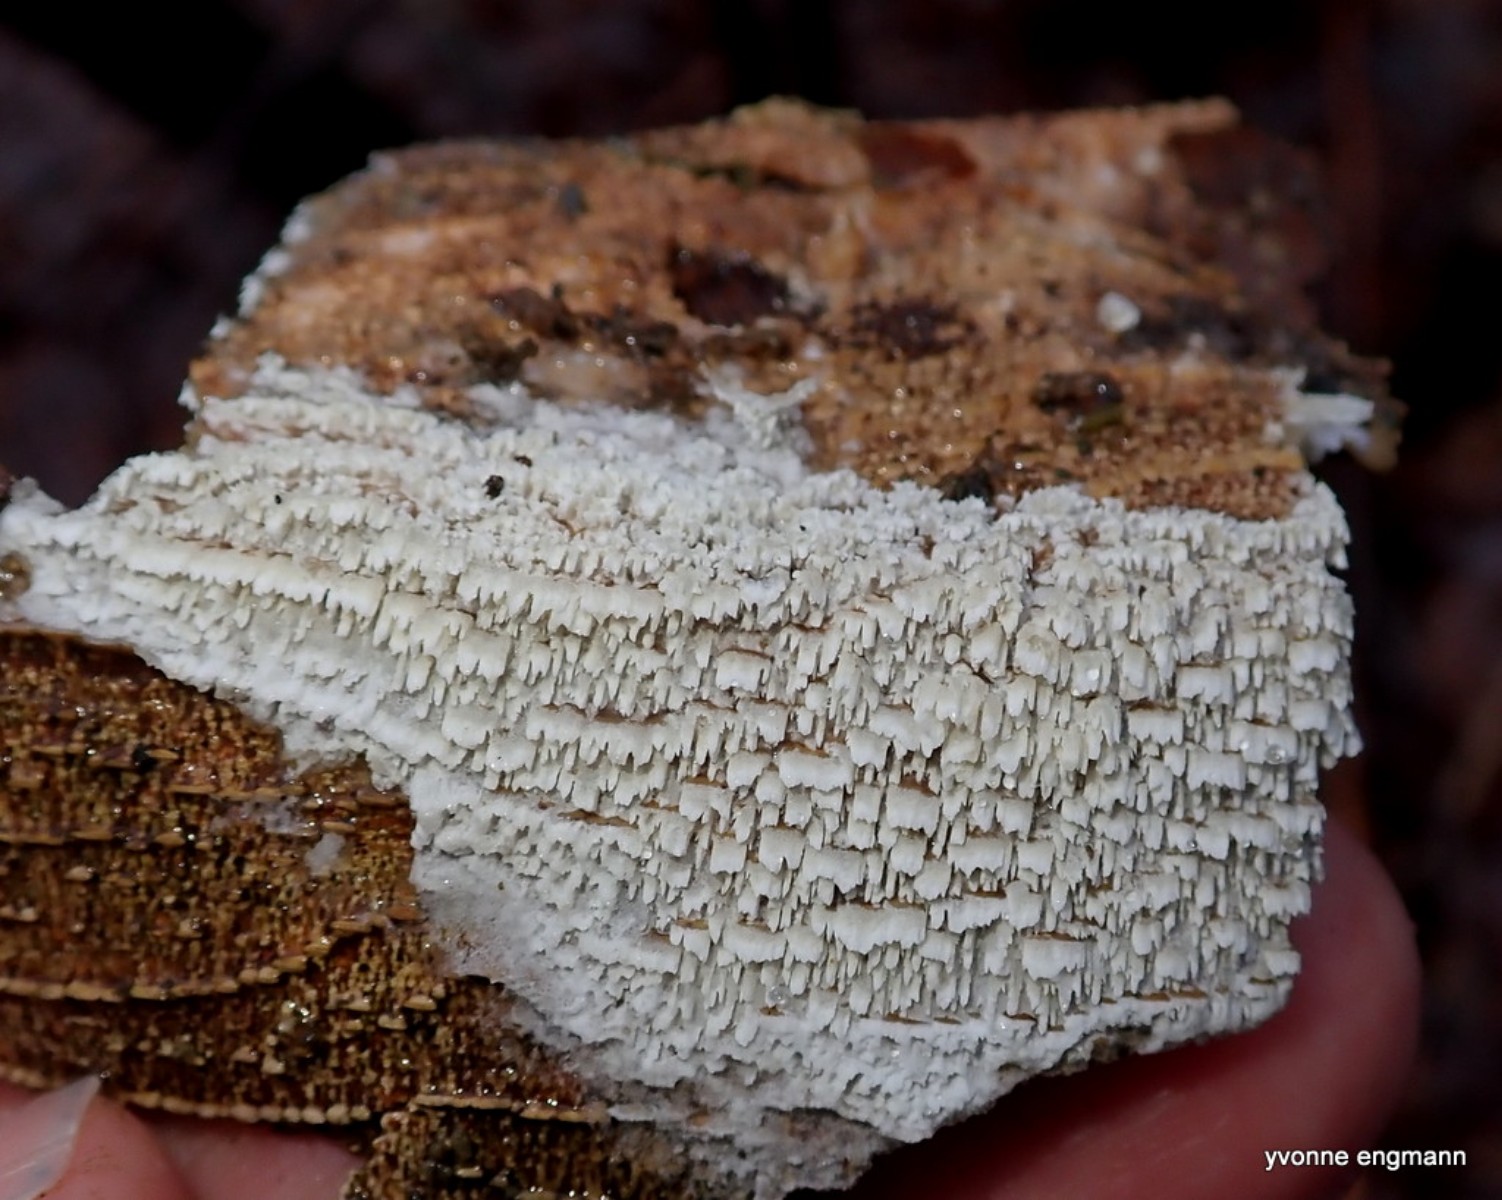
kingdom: Fungi
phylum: Basidiomycota
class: Agaricomycetes
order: Hymenochaetales
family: Schizoporaceae
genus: Schizopora
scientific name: Schizopora paradoxa
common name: hvid tandsvamp
